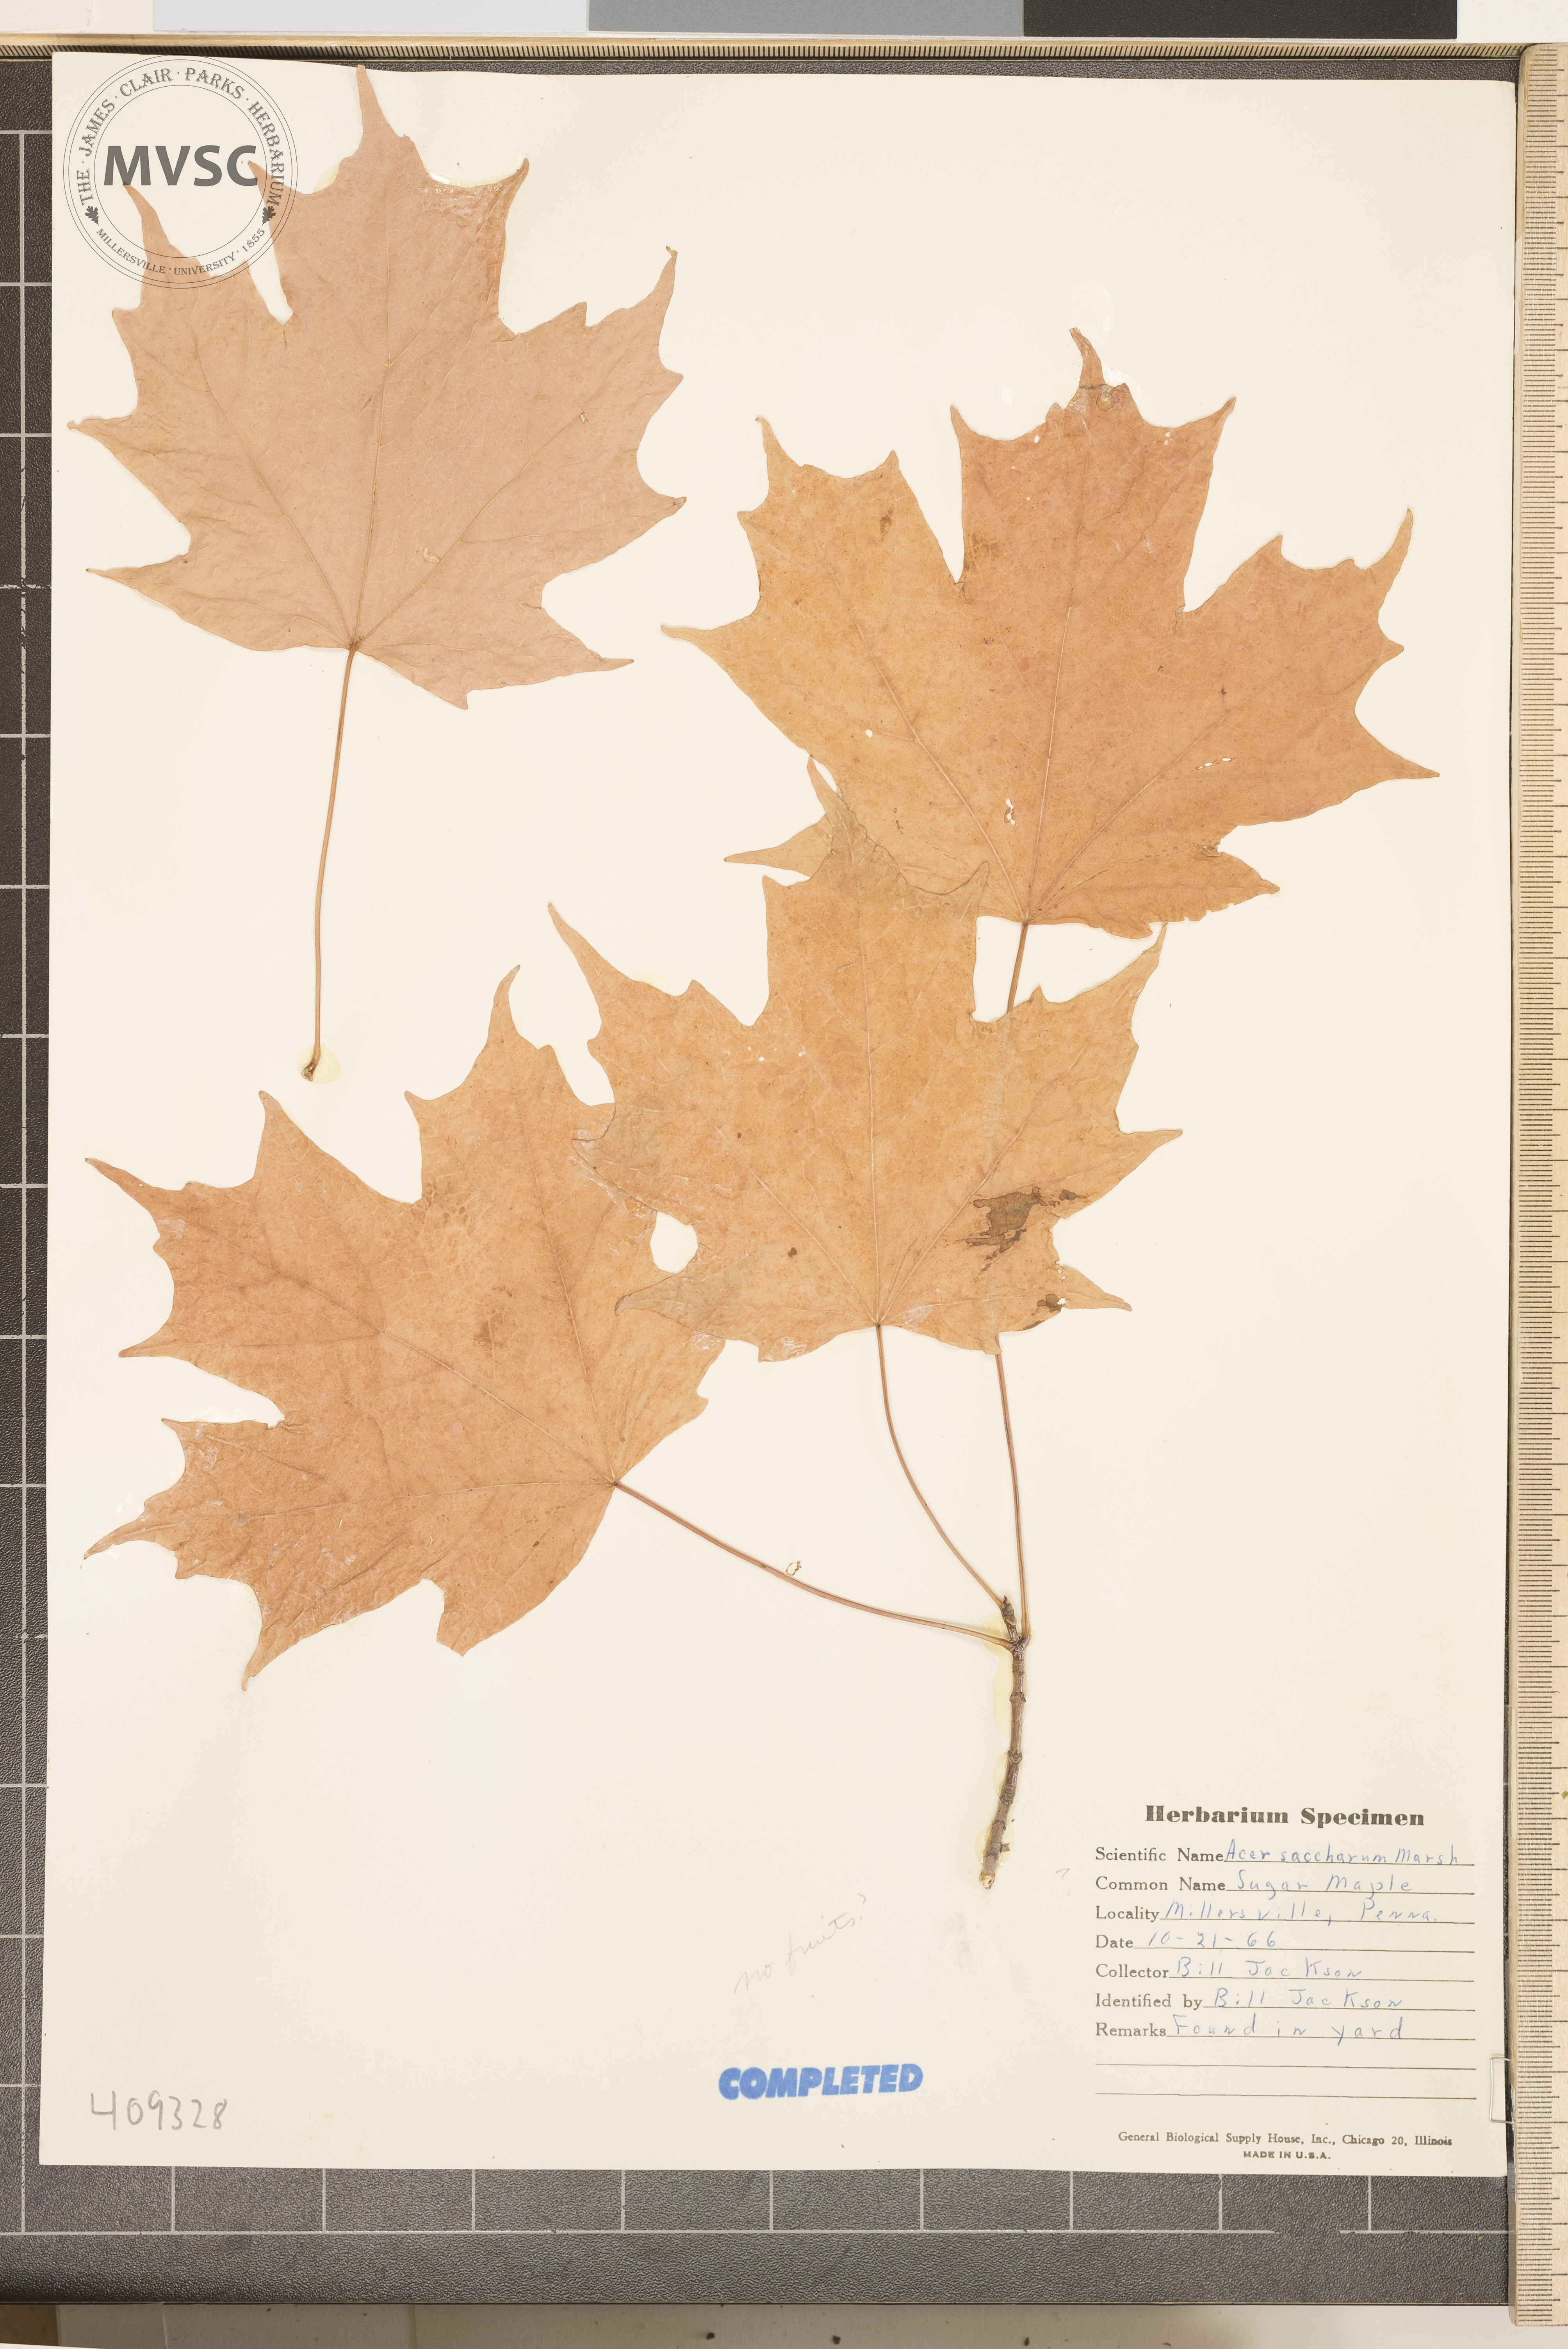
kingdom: Plantae
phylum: Tracheophyta
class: Magnoliopsida
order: Sapindales
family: Sapindaceae
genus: Acer
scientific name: Acer saccharum
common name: Sugar maple
